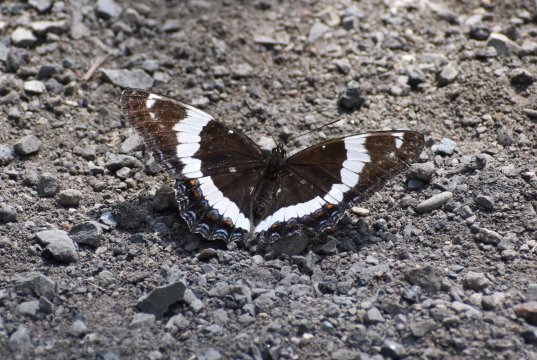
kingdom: Animalia
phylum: Arthropoda
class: Insecta
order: Lepidoptera
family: Nymphalidae
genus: Limenitis
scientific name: Limenitis arthemis
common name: Red-spotted Admiral
